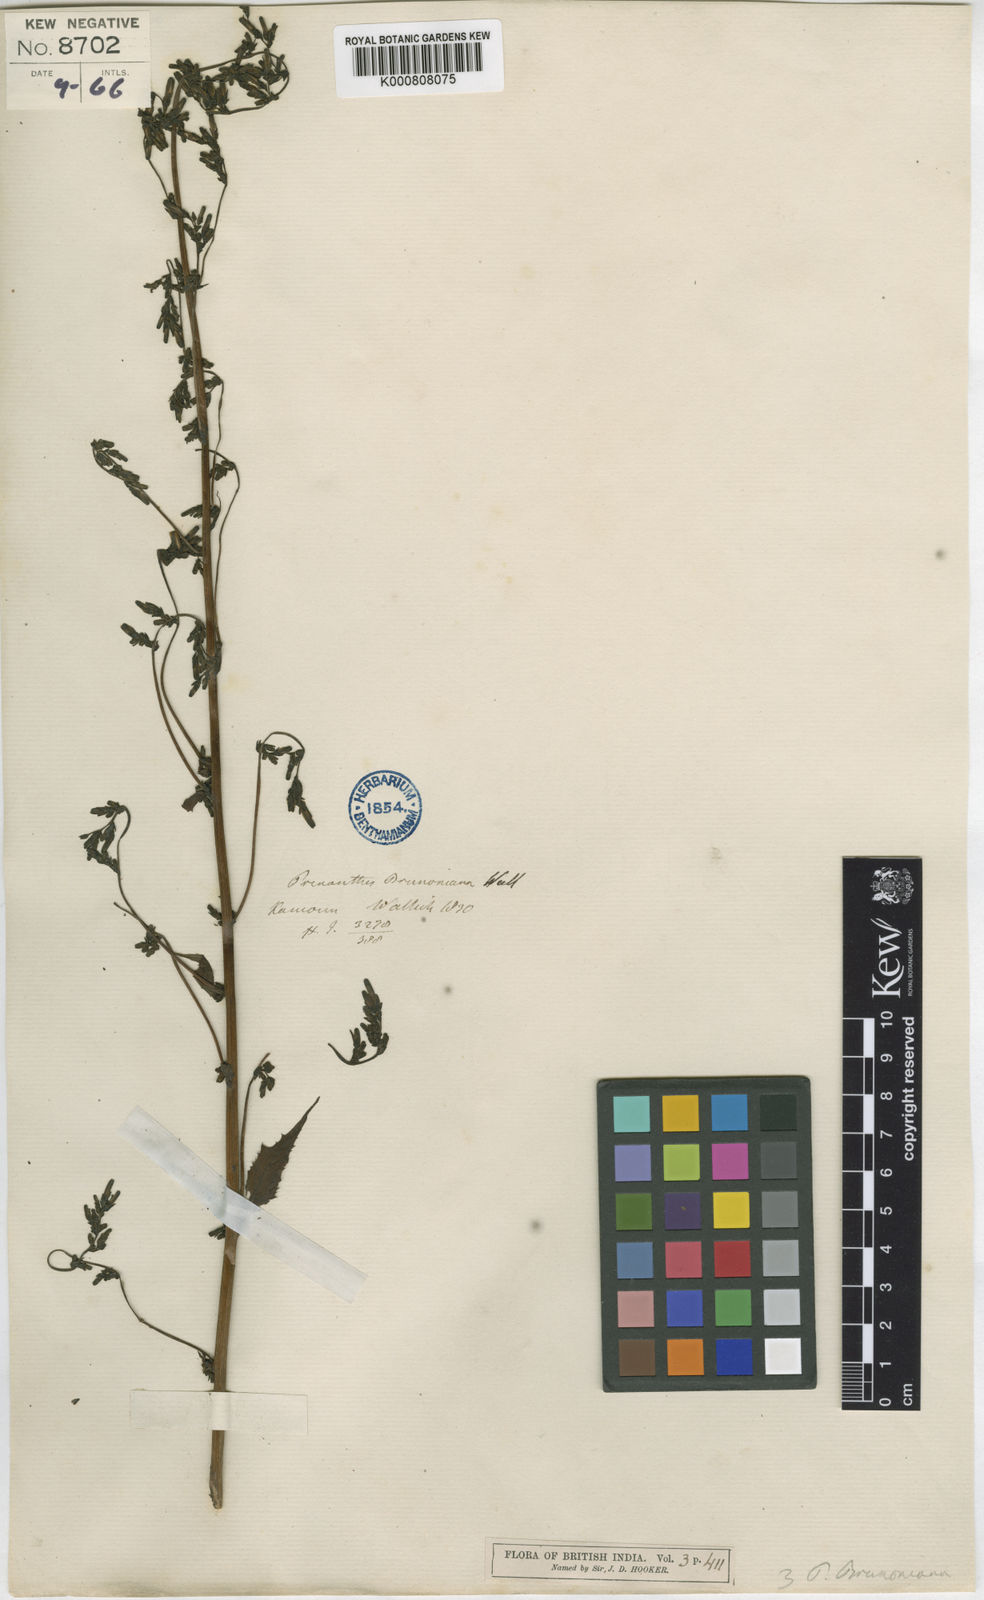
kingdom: Plantae
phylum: Tracheophyta
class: Magnoliopsida
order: Asterales
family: Asteraceae
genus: Melanoseris
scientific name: Melanoseris
